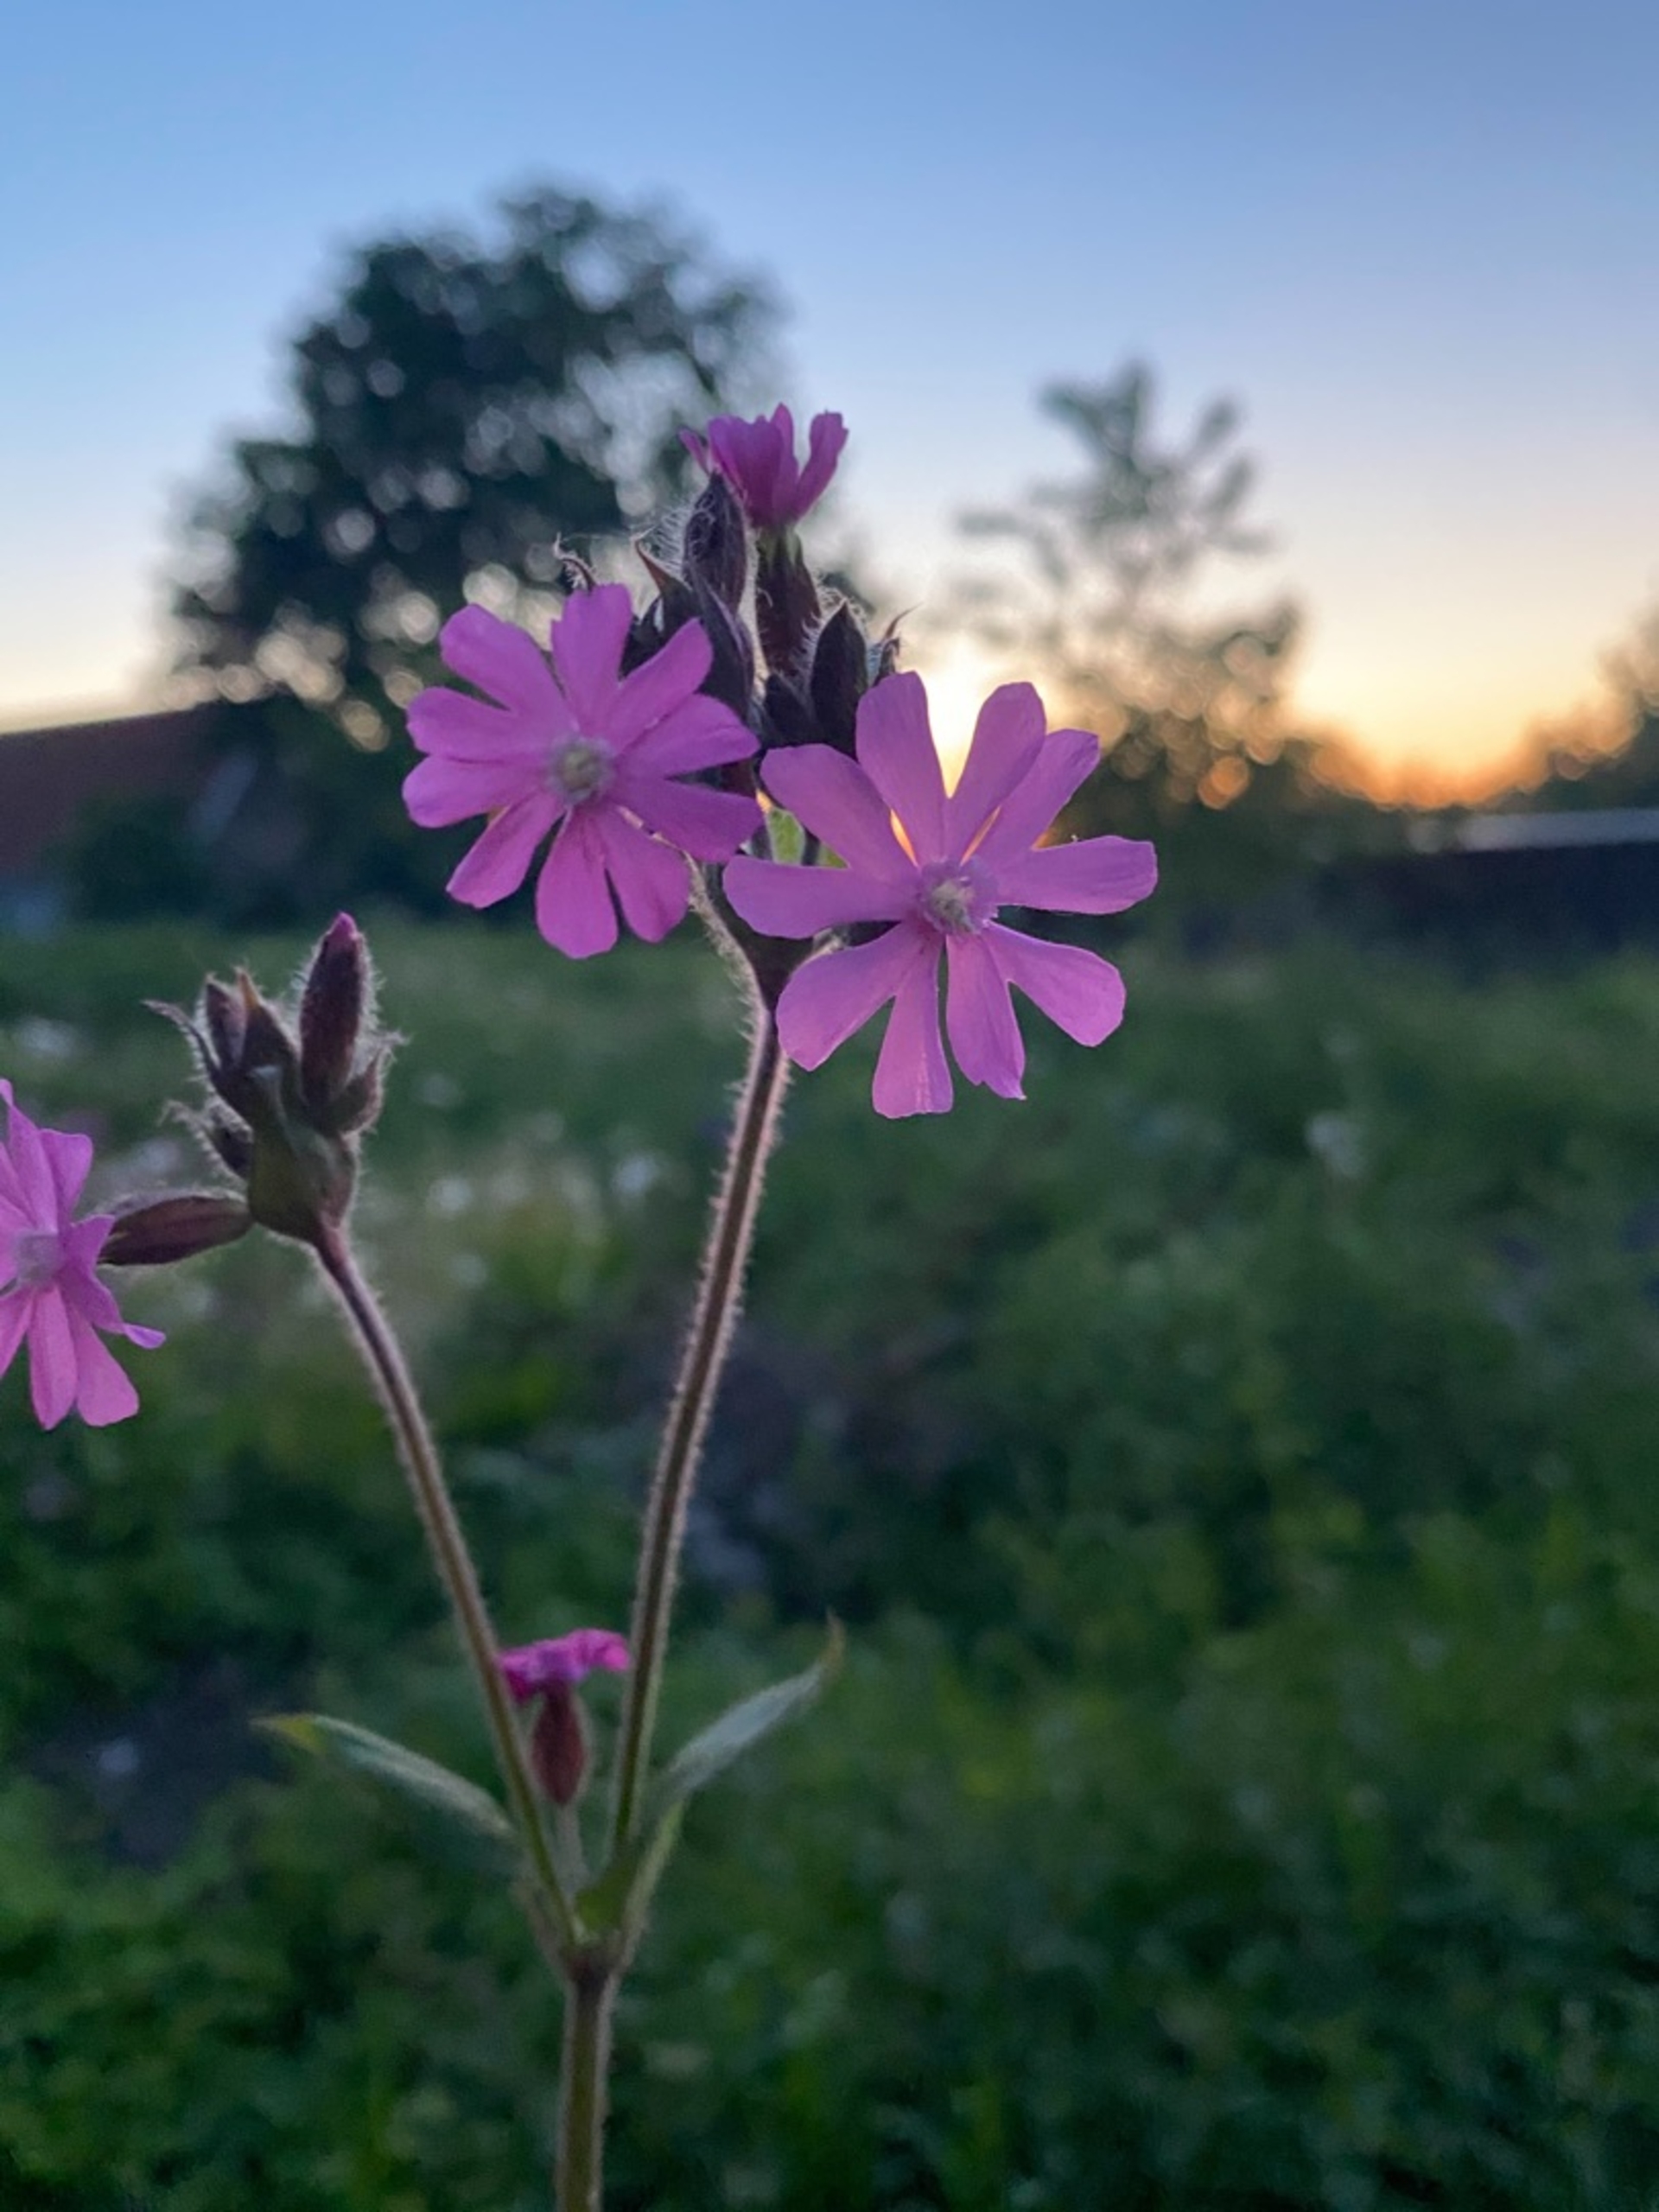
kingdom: Plantae
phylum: Tracheophyta
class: Magnoliopsida
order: Caryophyllales
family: Caryophyllaceae
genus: Silene
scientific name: Silene dioica
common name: Dagpragtstjerne
